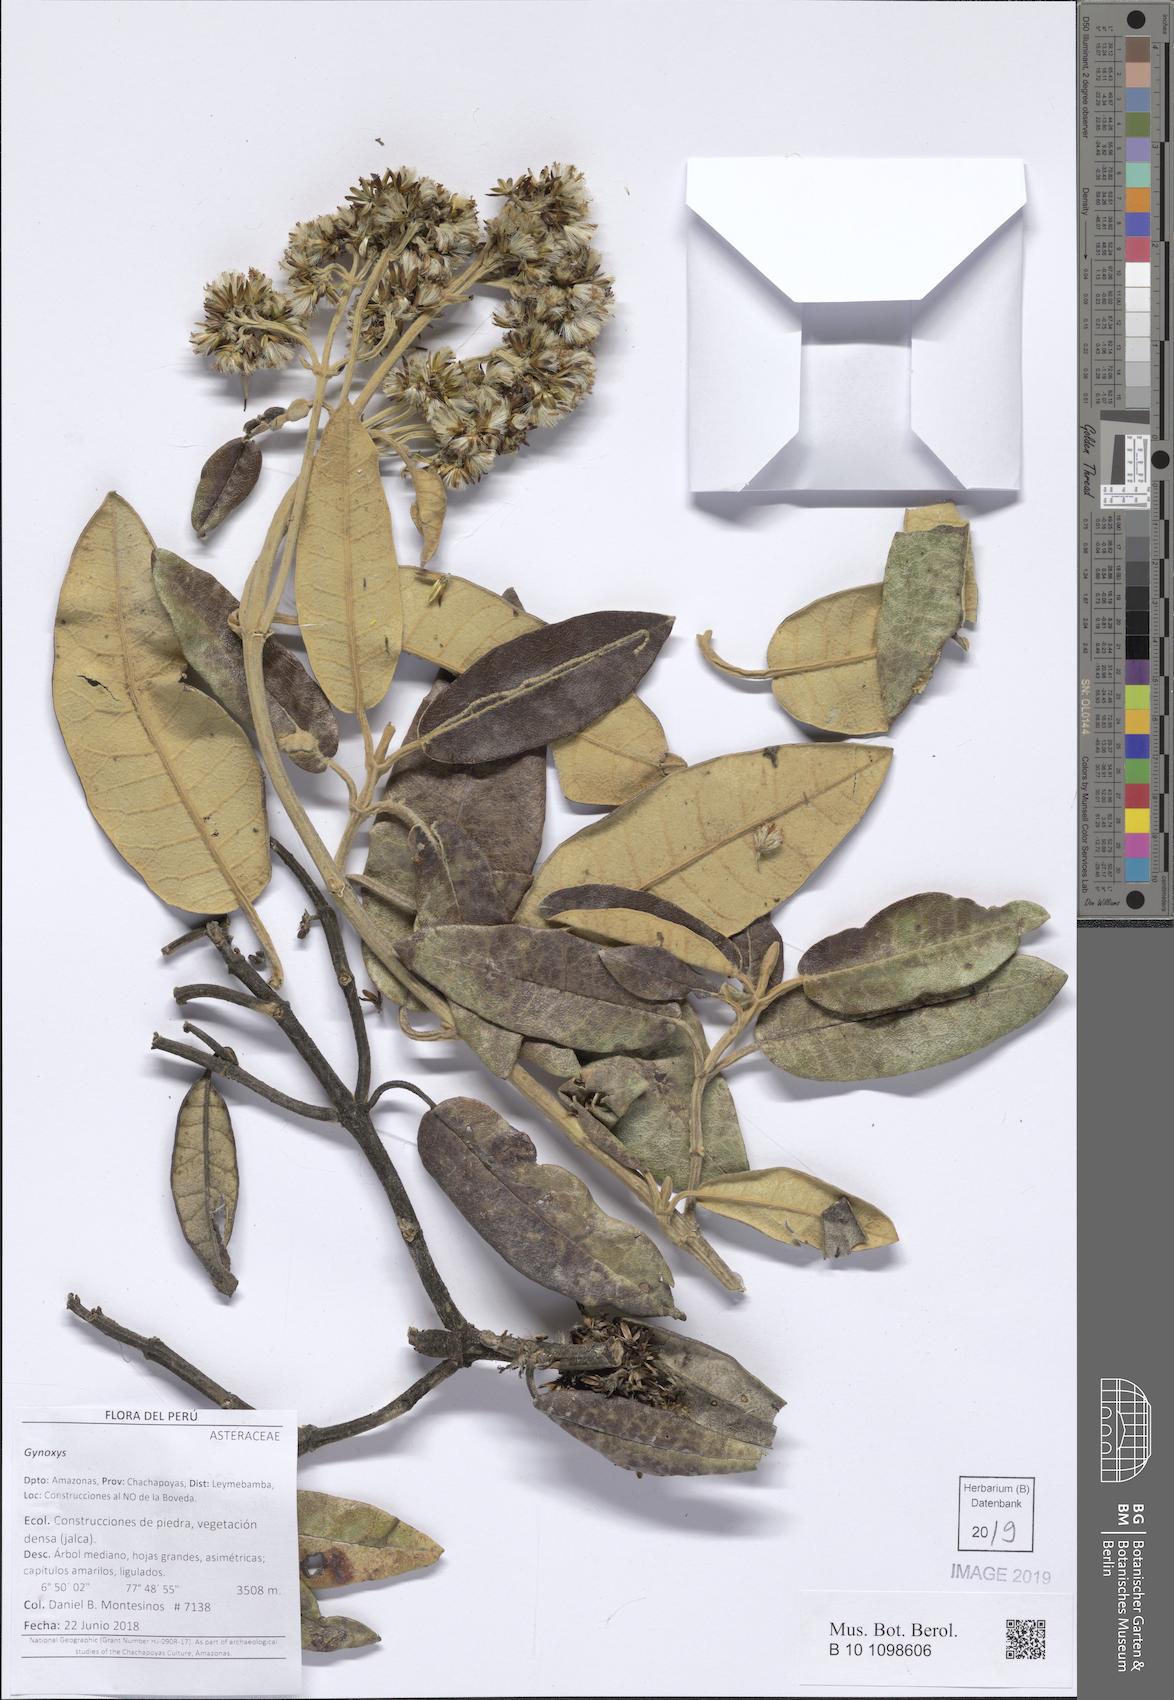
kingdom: Plantae
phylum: Tracheophyta
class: Magnoliopsida
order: Asterales
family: Asteraceae
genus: Gynoxys
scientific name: Gynoxys
